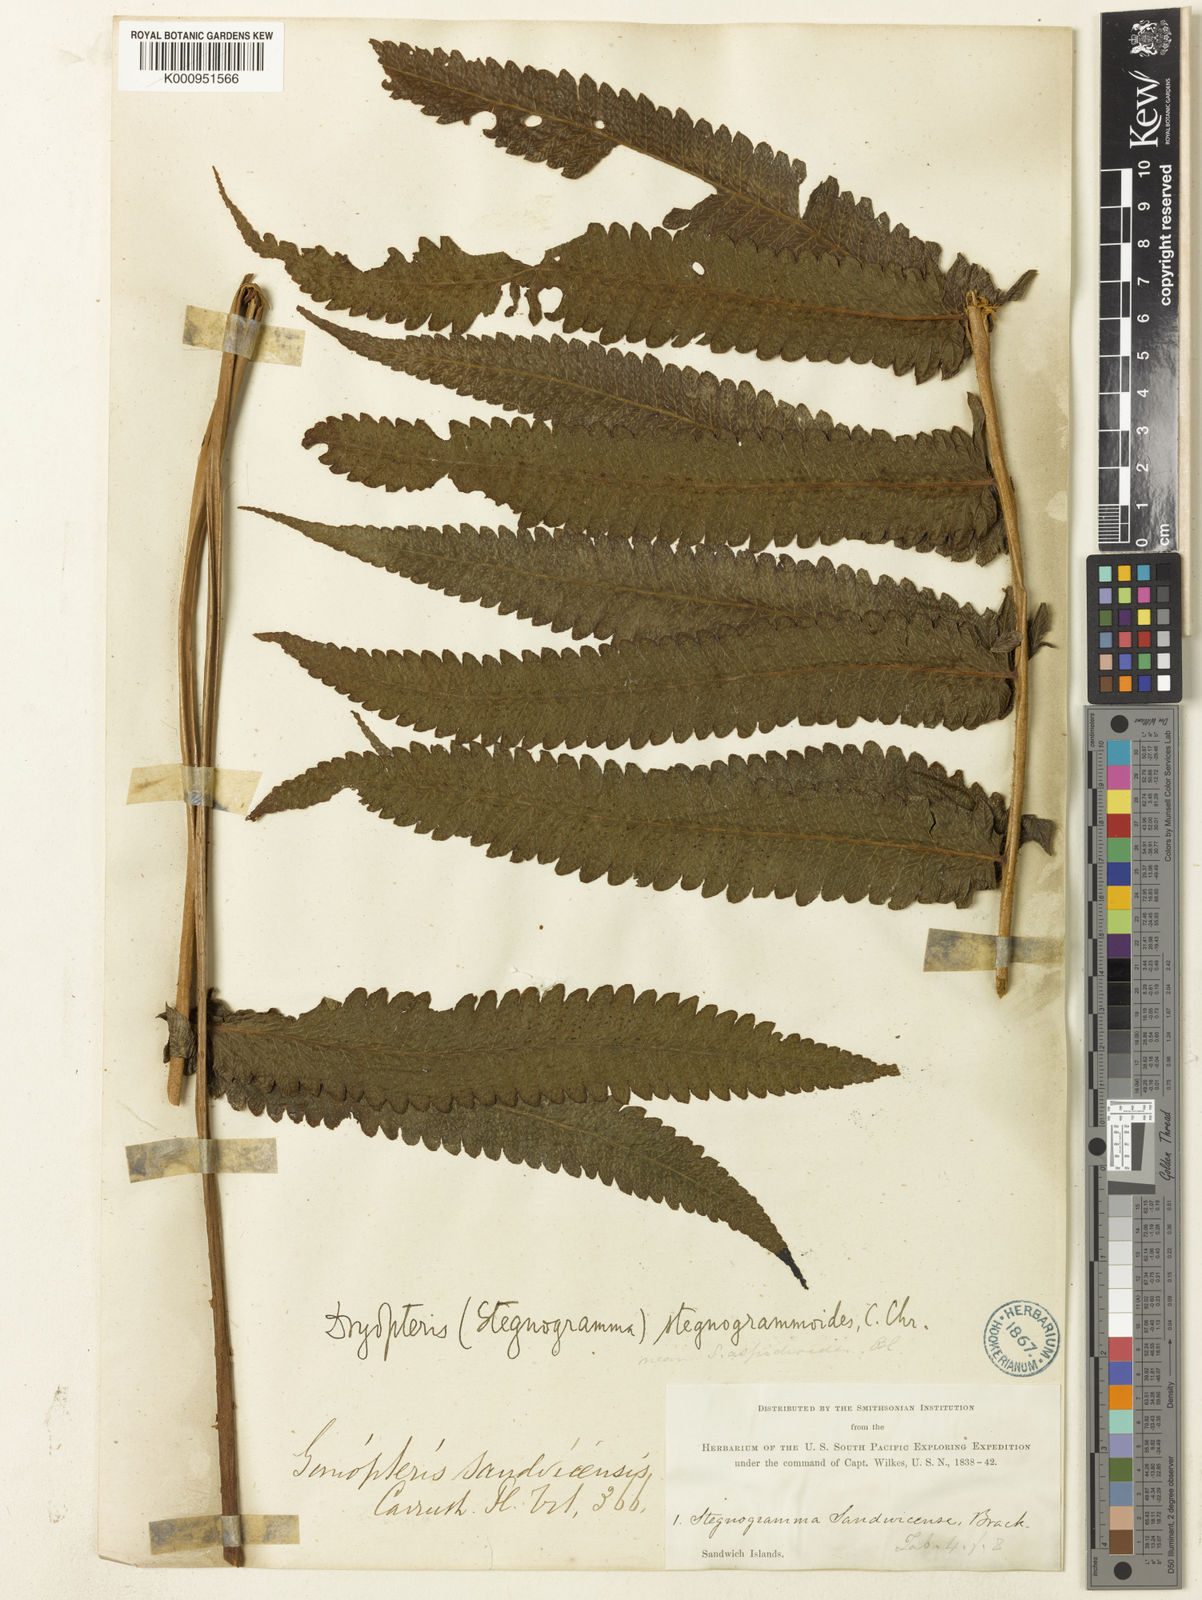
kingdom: Plantae
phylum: Tracheophyta
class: Polypodiopsida
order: Polypodiales
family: Thelypteridaceae
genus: Hoiokula
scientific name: Hoiokula sandwicensis
